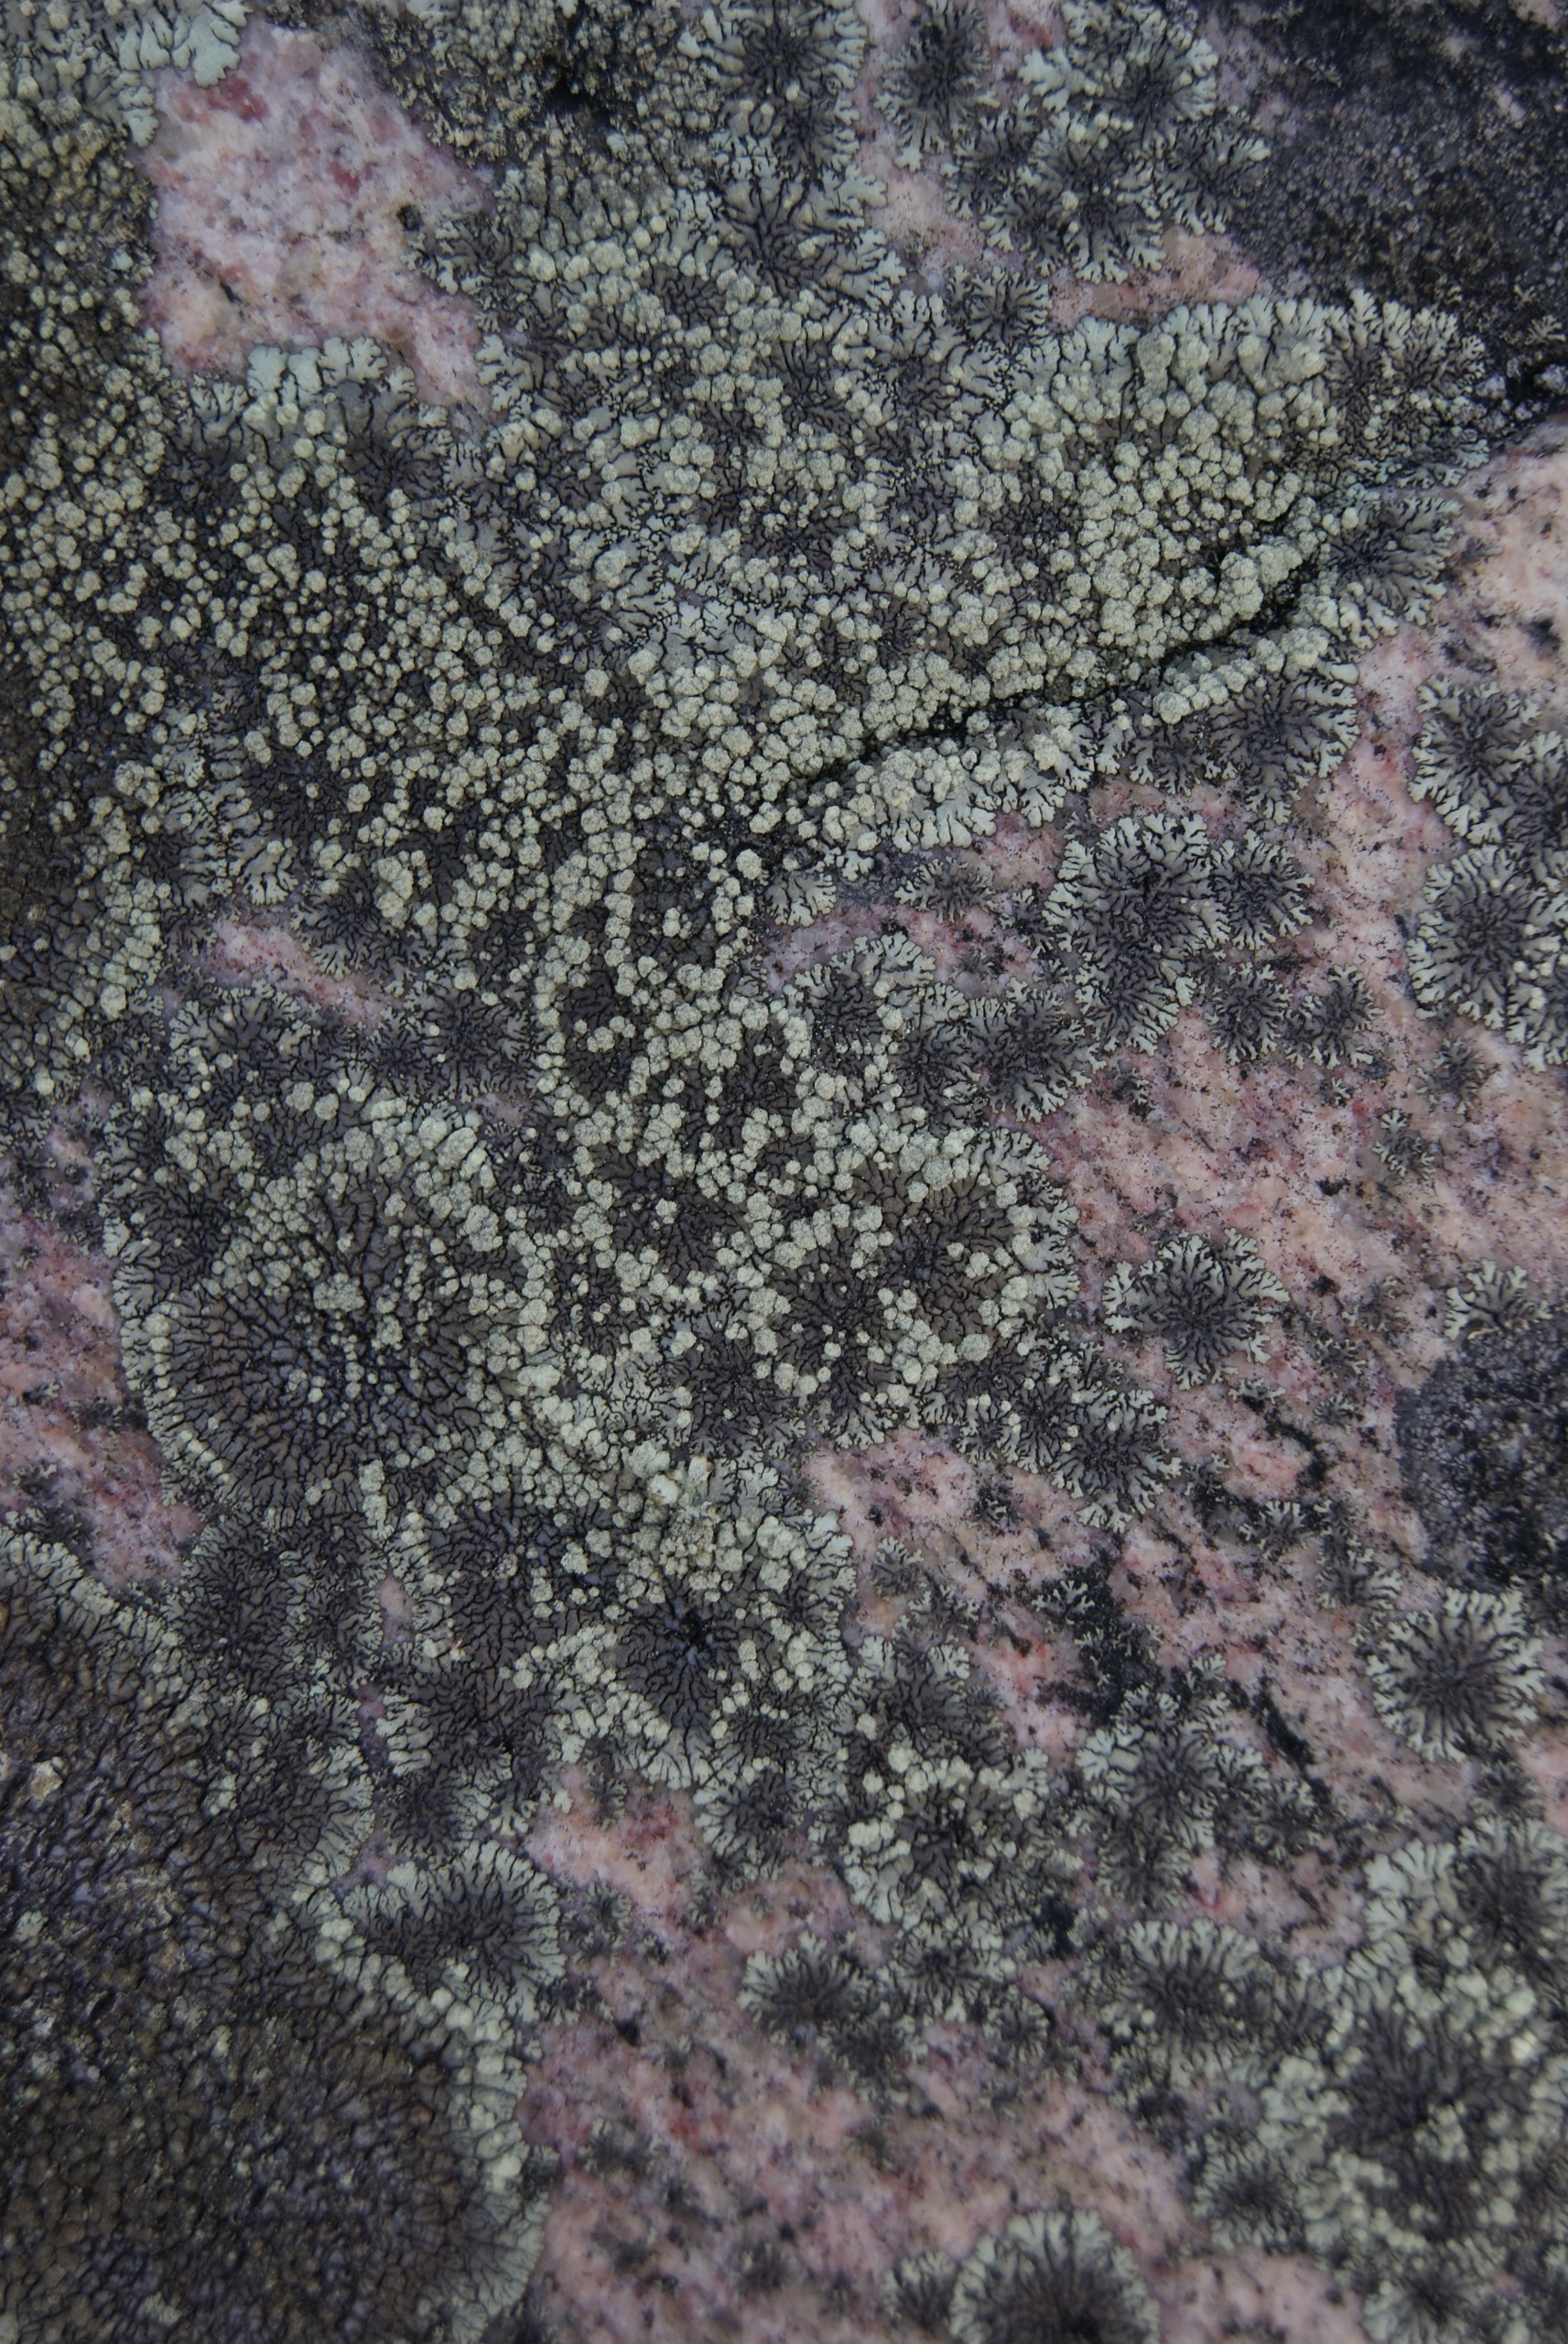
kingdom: Fungi
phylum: Ascomycota
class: Lecanoromycetes
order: Lecanorales
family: Parmeliaceae
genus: Xanthoparmelia
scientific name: Xanthoparmelia mougeotii
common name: Liden skållav
